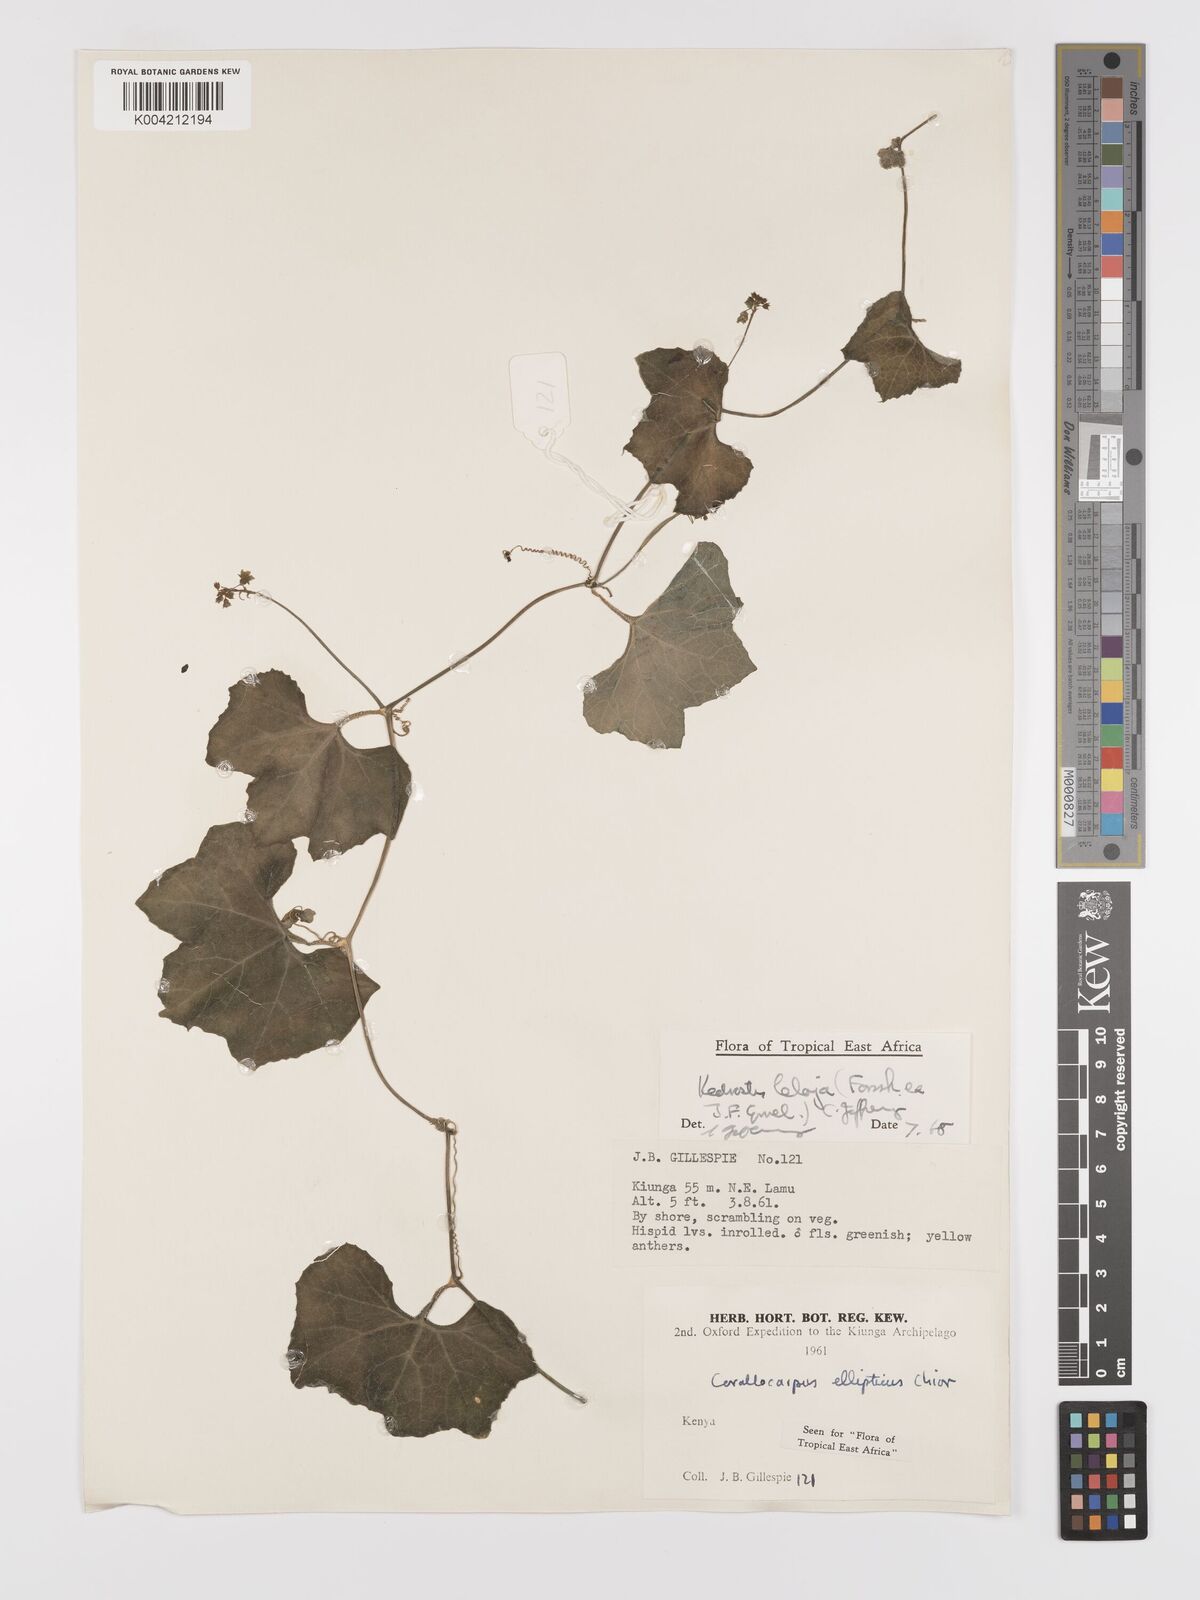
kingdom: Plantae
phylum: Tracheophyta
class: Magnoliopsida
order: Cucurbitales
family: Cucurbitaceae
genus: Kedrostis
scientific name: Kedrostis abdallae
